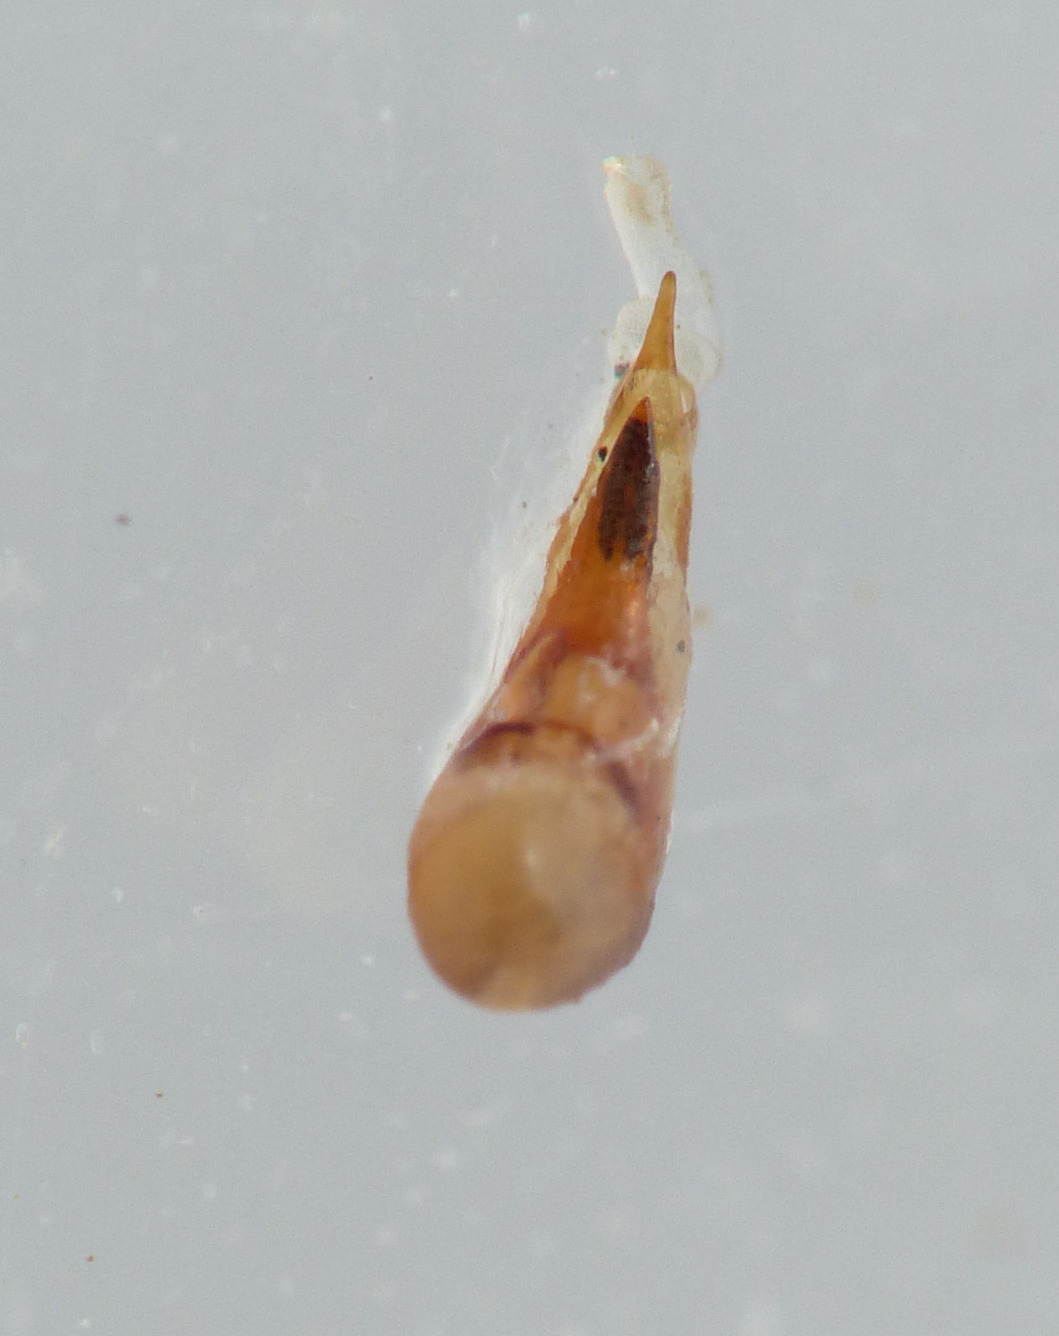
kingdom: Animalia
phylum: Arthropoda
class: Insecta
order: Coleoptera
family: Staphylinidae
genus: Philonthus
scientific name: Philonthus succicola
